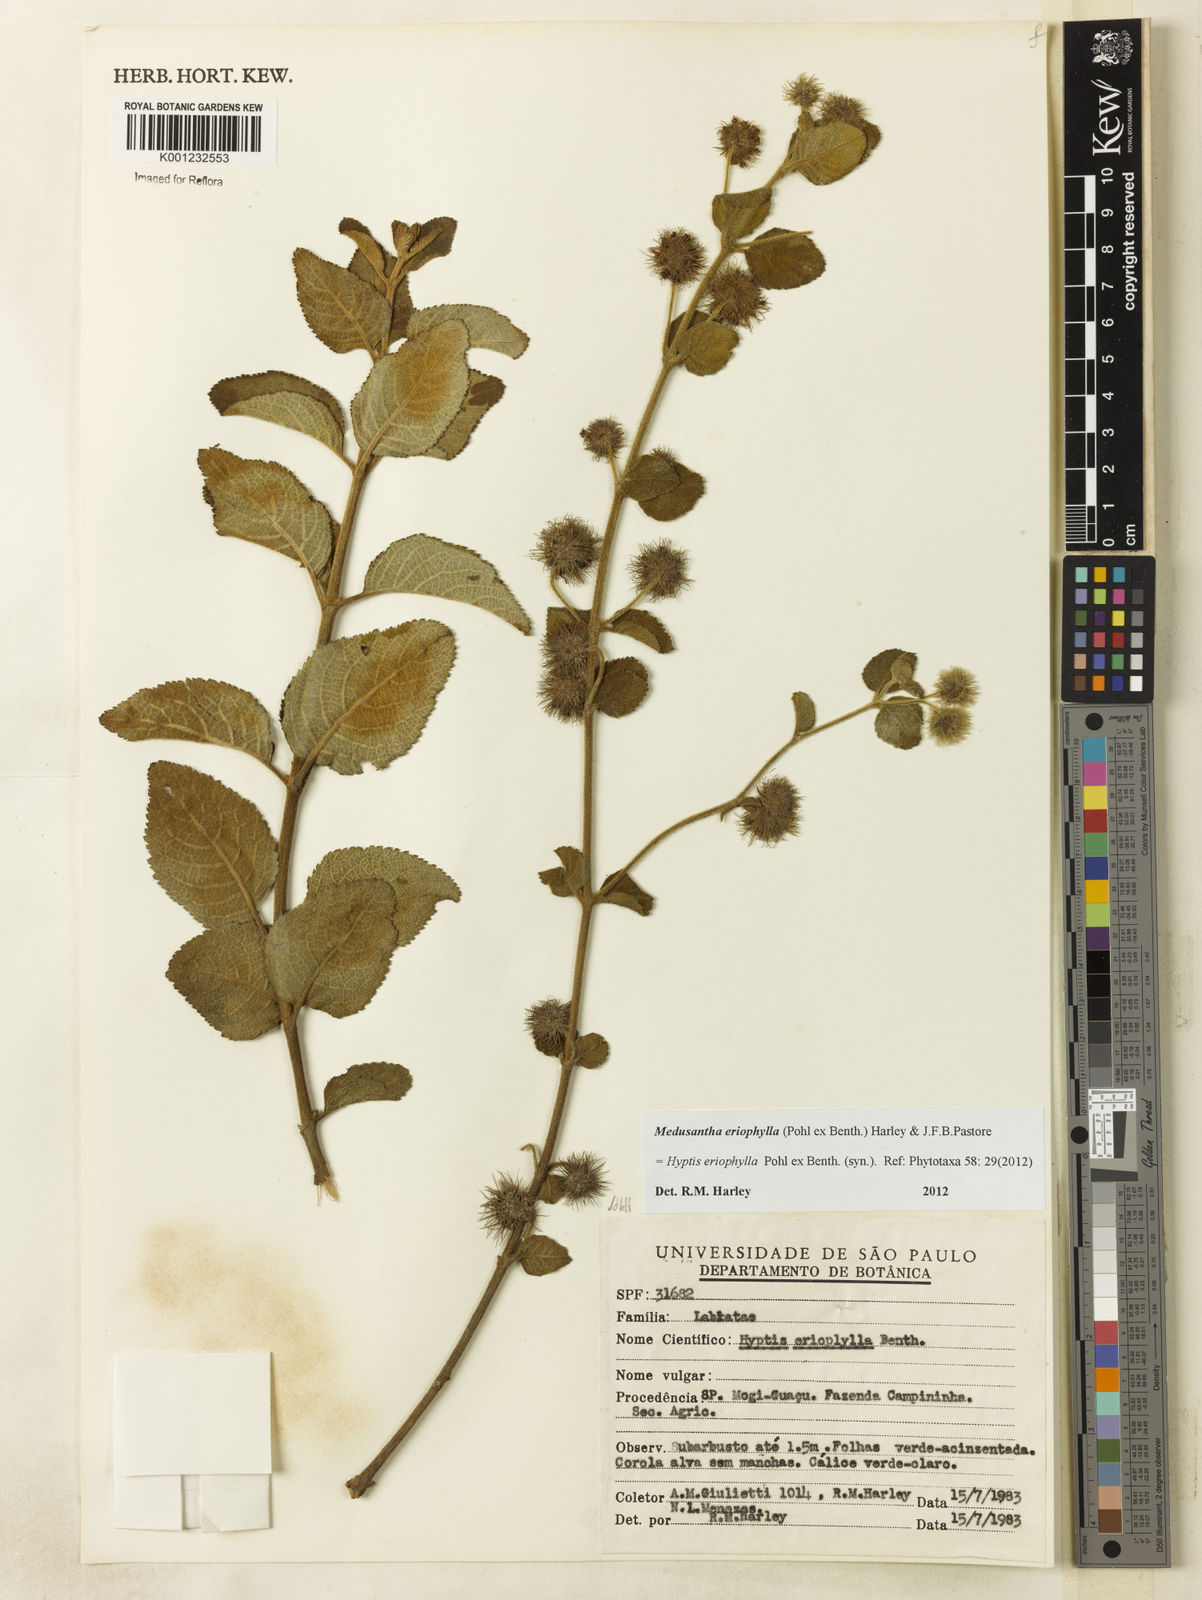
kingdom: Plantae
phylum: Tracheophyta
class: Magnoliopsida
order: Lamiales
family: Lamiaceae
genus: Medusantha
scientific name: Medusantha eriophylla
